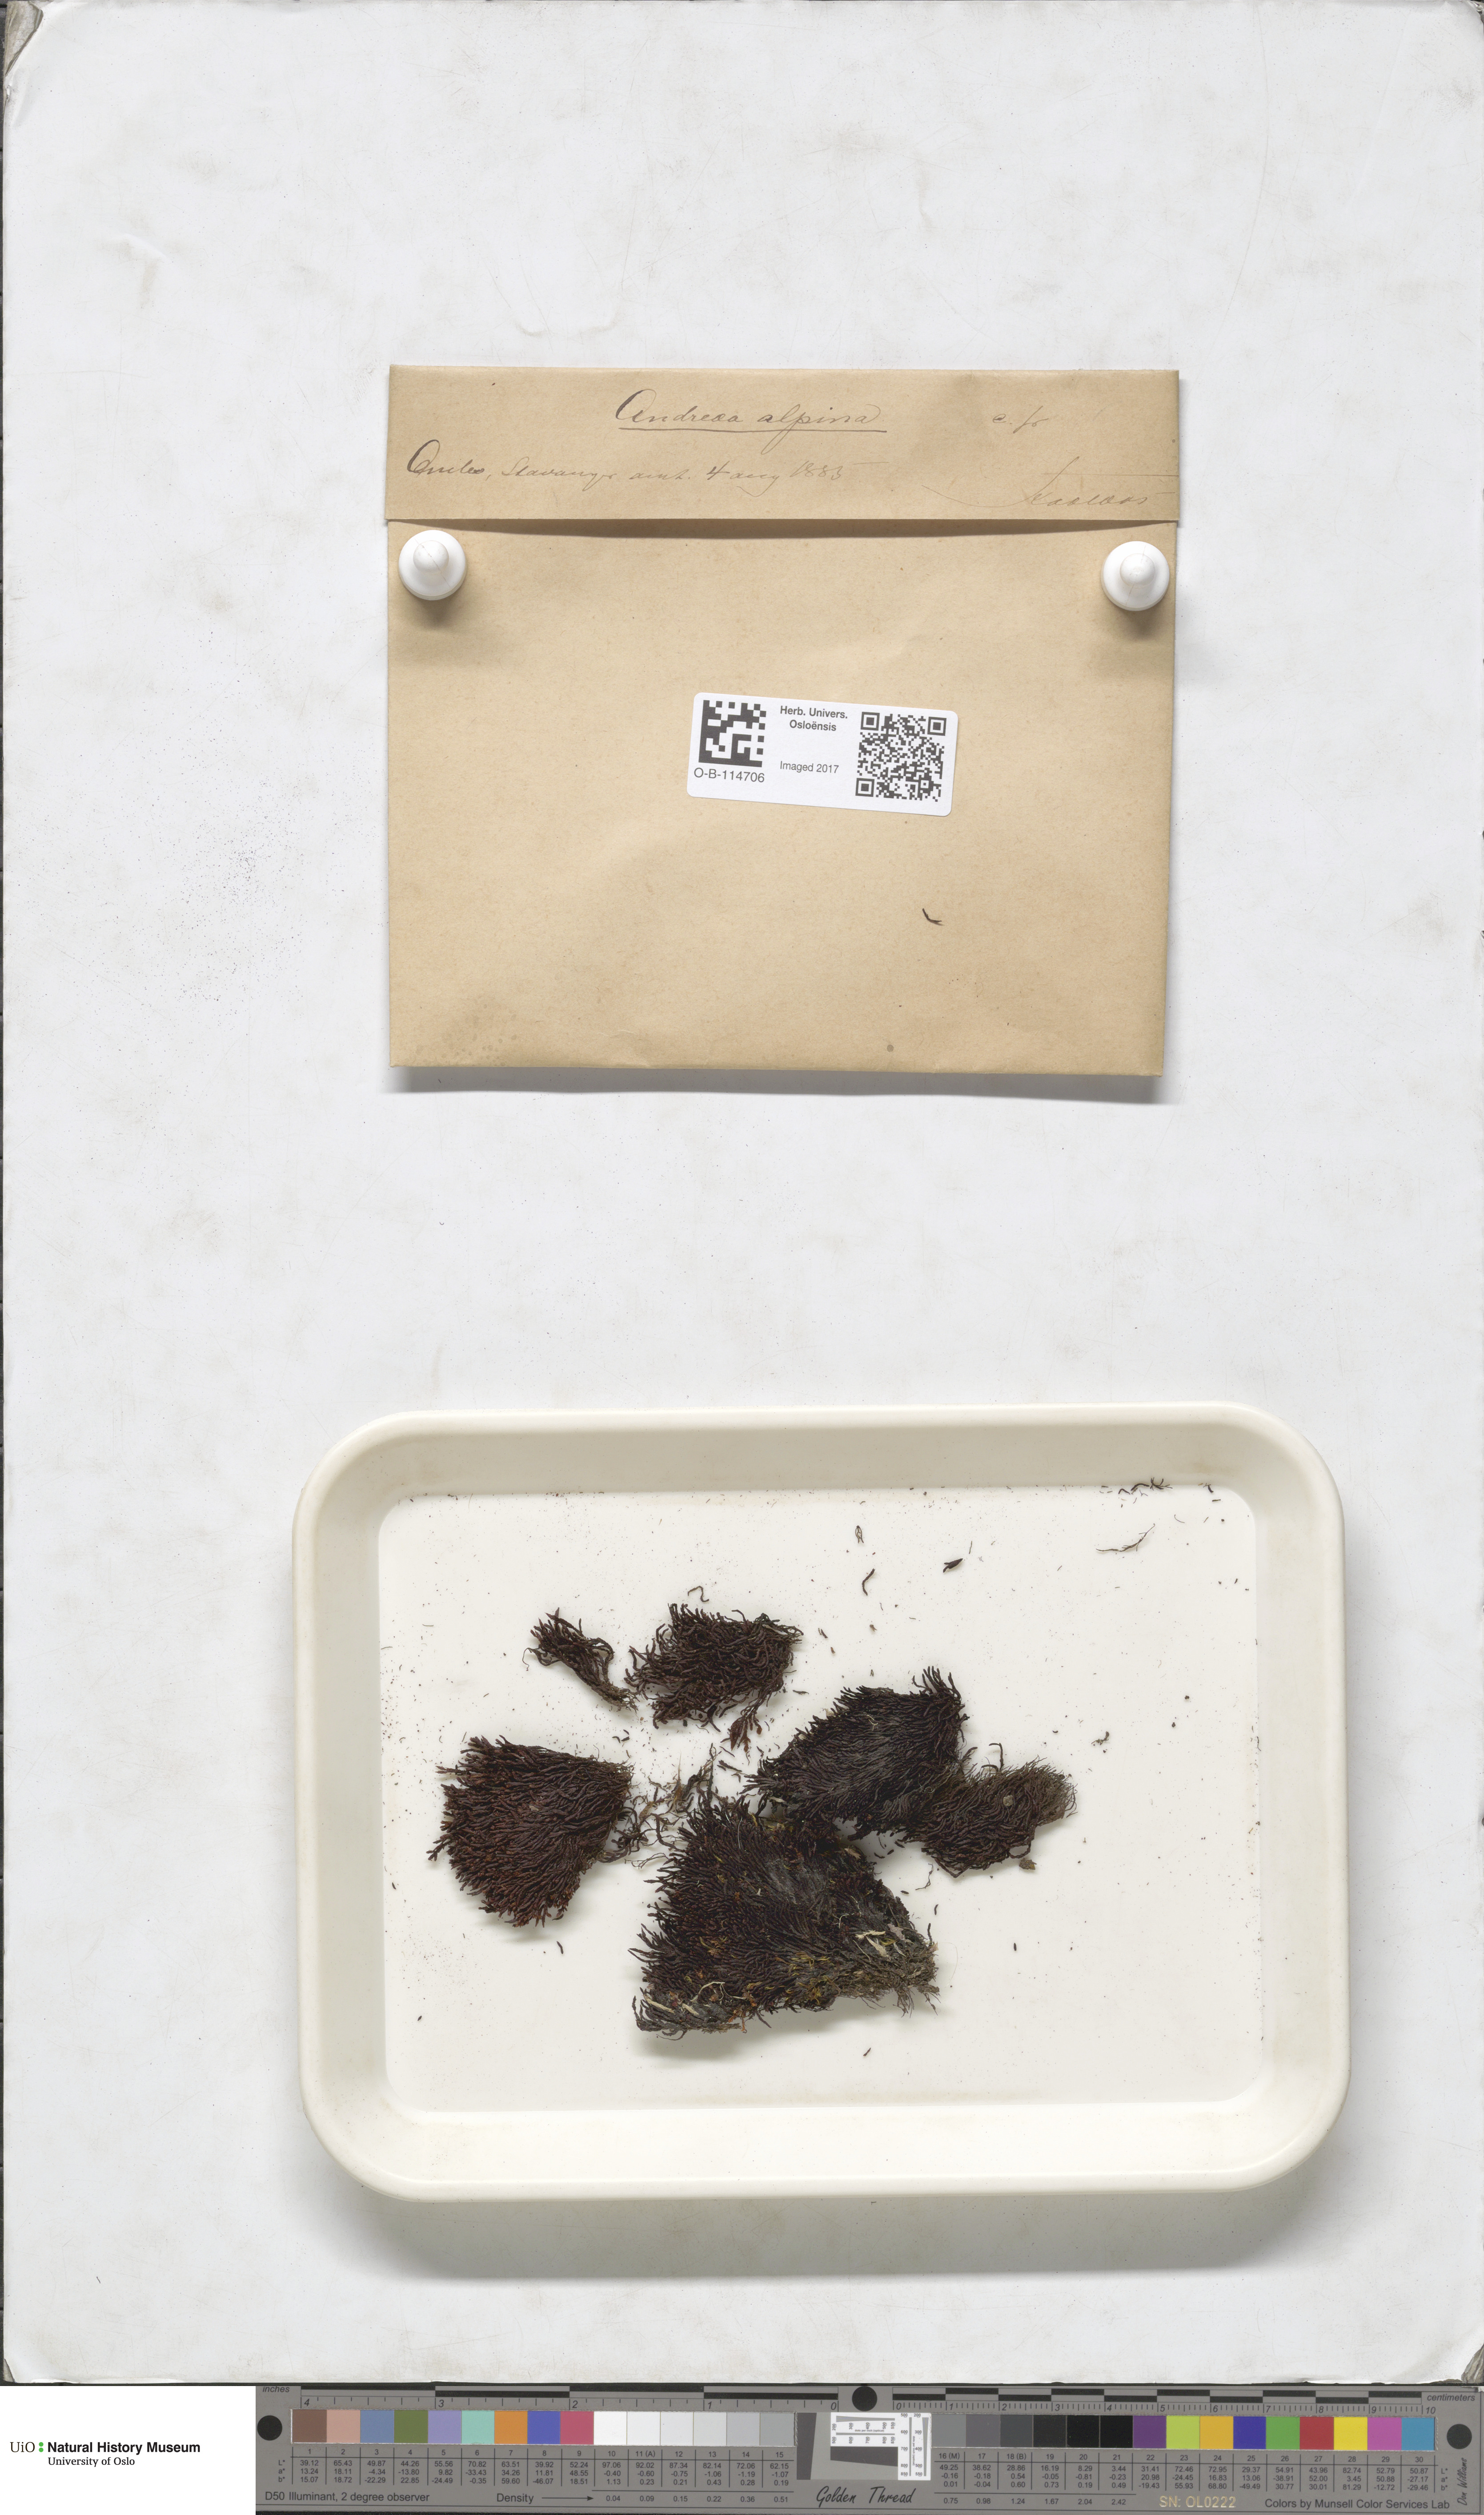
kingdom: Plantae
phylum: Bryophyta
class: Andreaeopsida
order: Andreaeales
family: Andreaeaceae
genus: Andreaea
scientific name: Andreaea hookeri
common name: Alpine rock-moss
